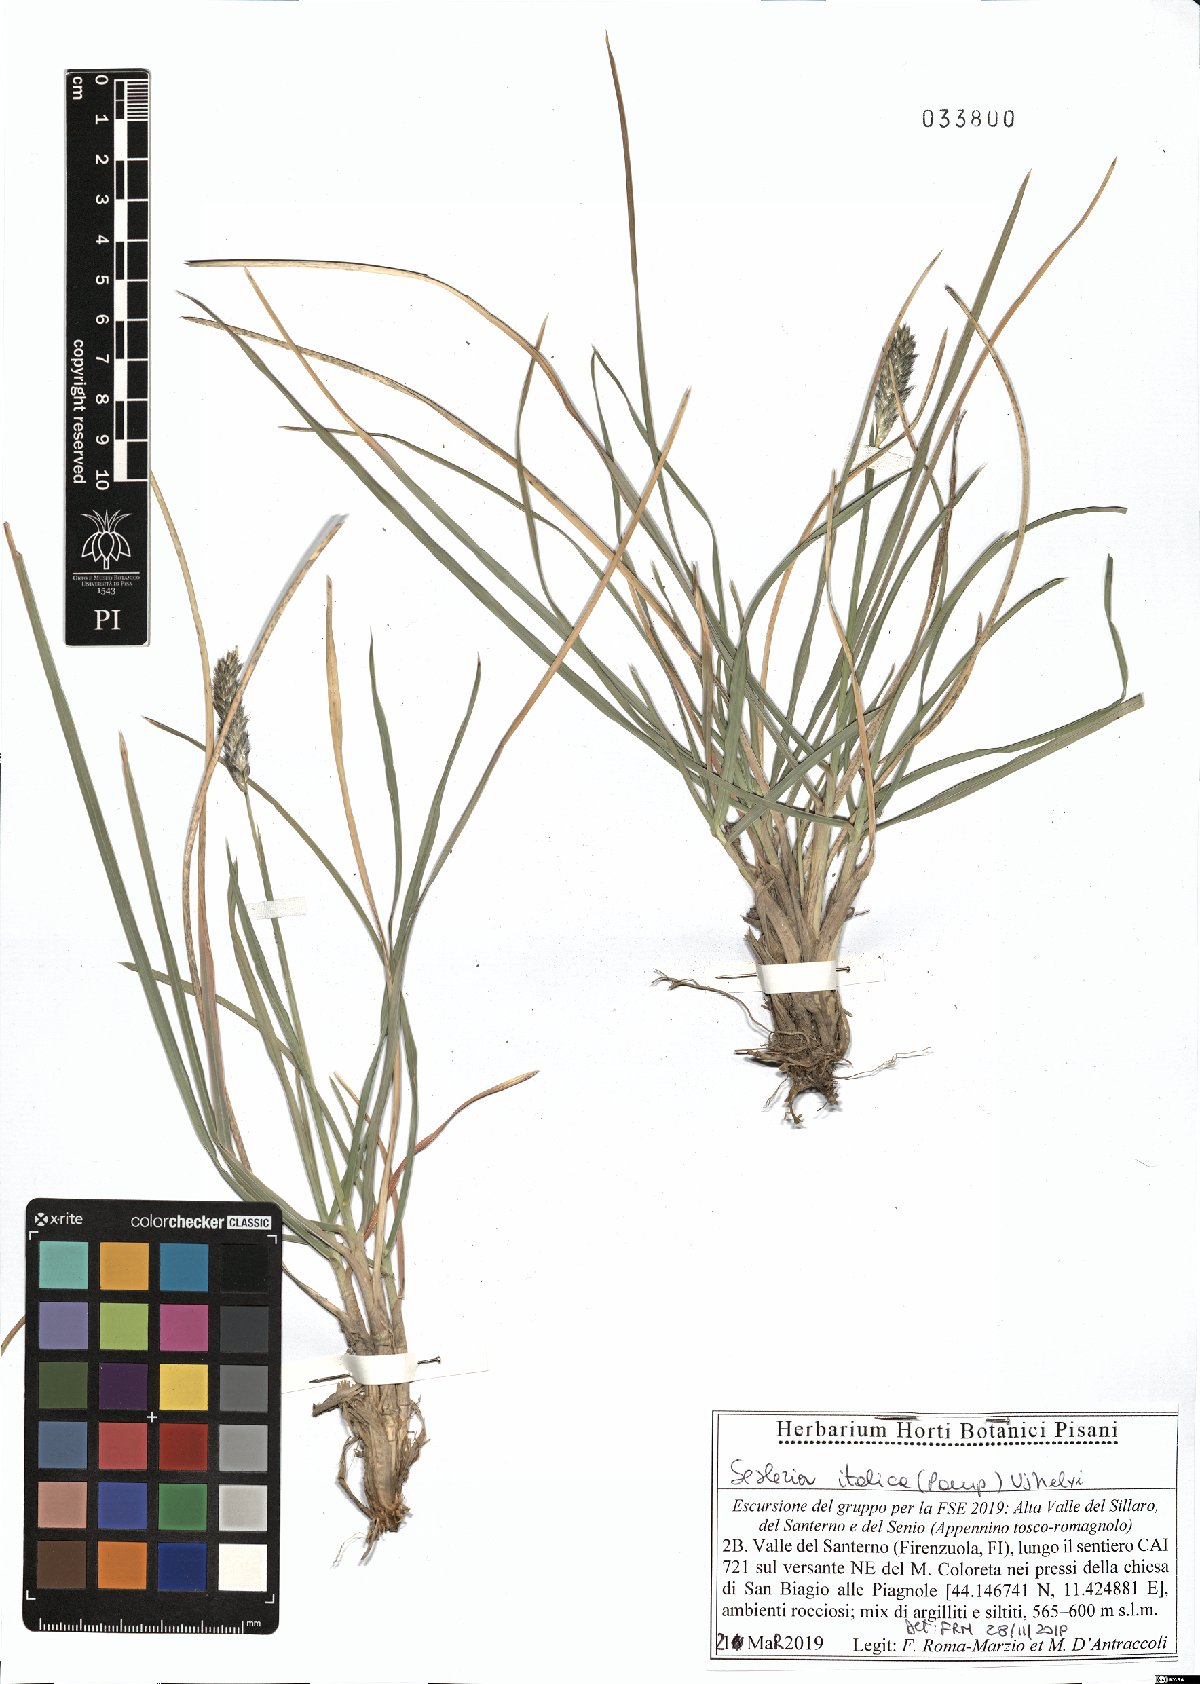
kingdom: Plantae
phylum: Tracheophyta
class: Liliopsida
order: Poales
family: Poaceae
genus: Sesleria
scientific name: Sesleria italica
